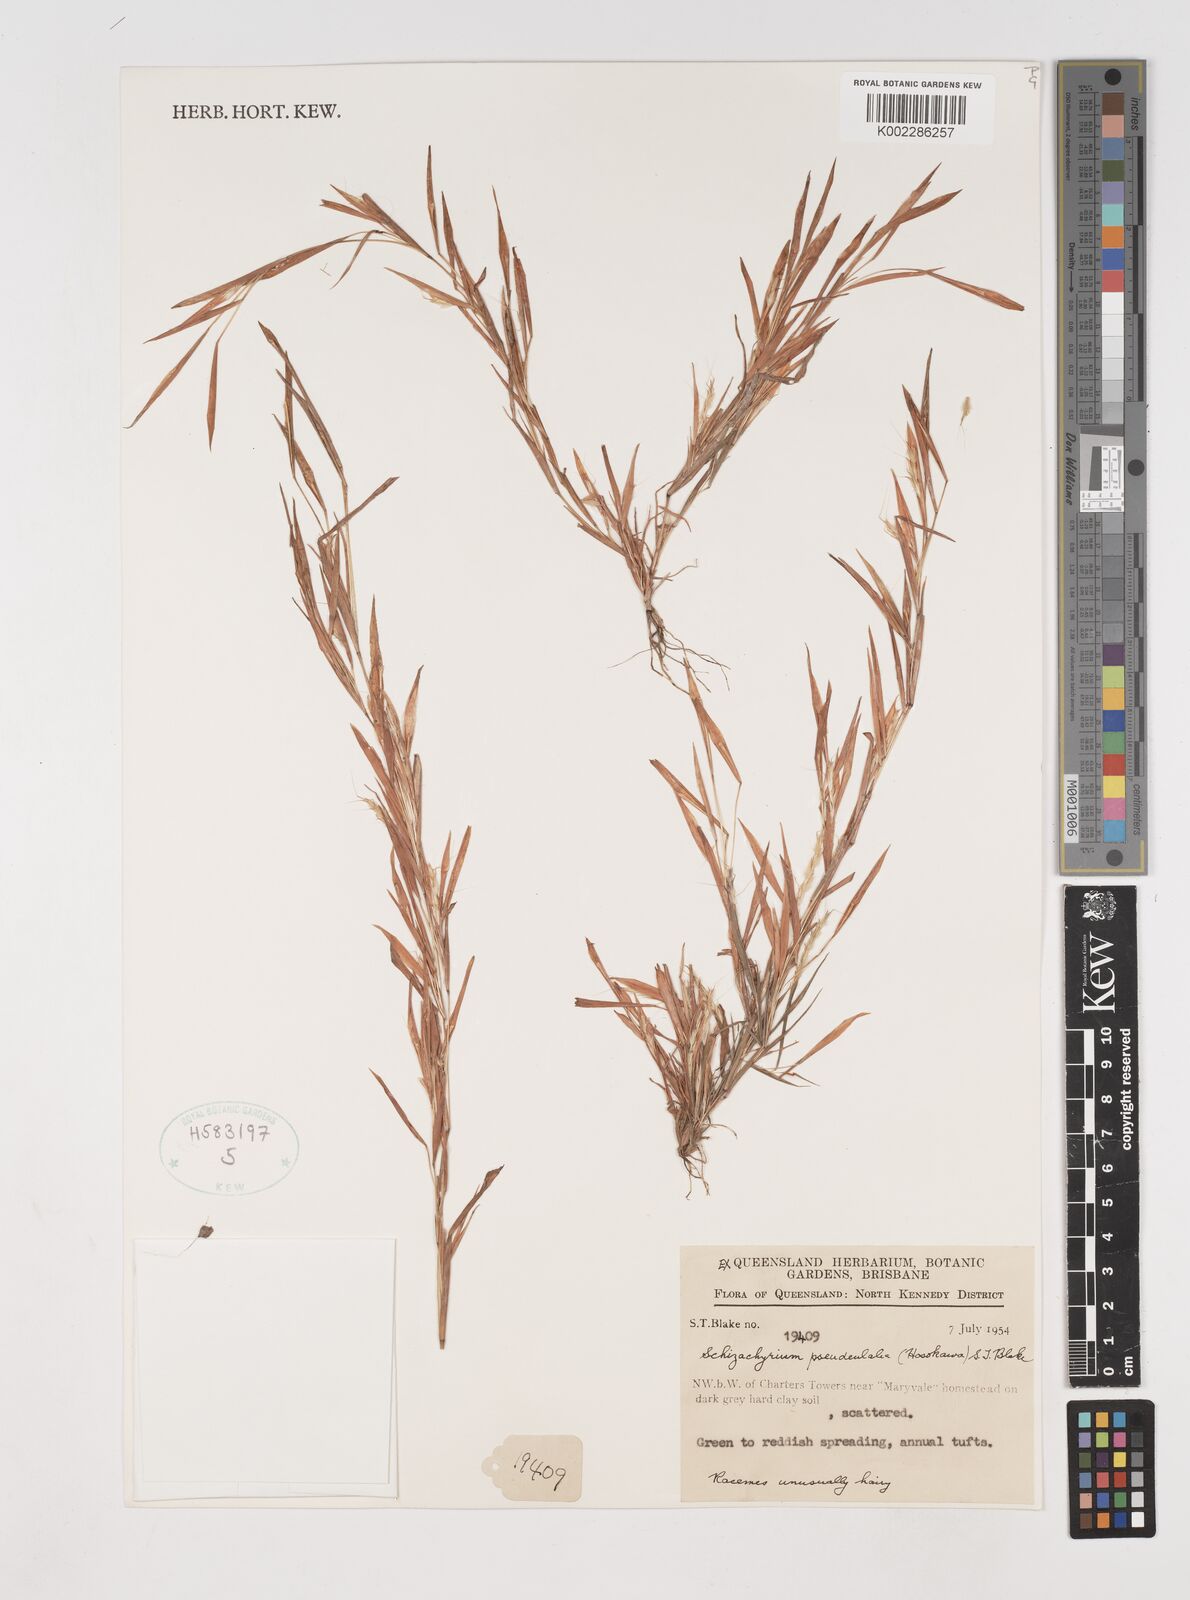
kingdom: Plantae
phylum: Tracheophyta
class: Liliopsida
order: Poales
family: Poaceae
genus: Schizachyrium
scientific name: Schizachyrium pseudeulalia
